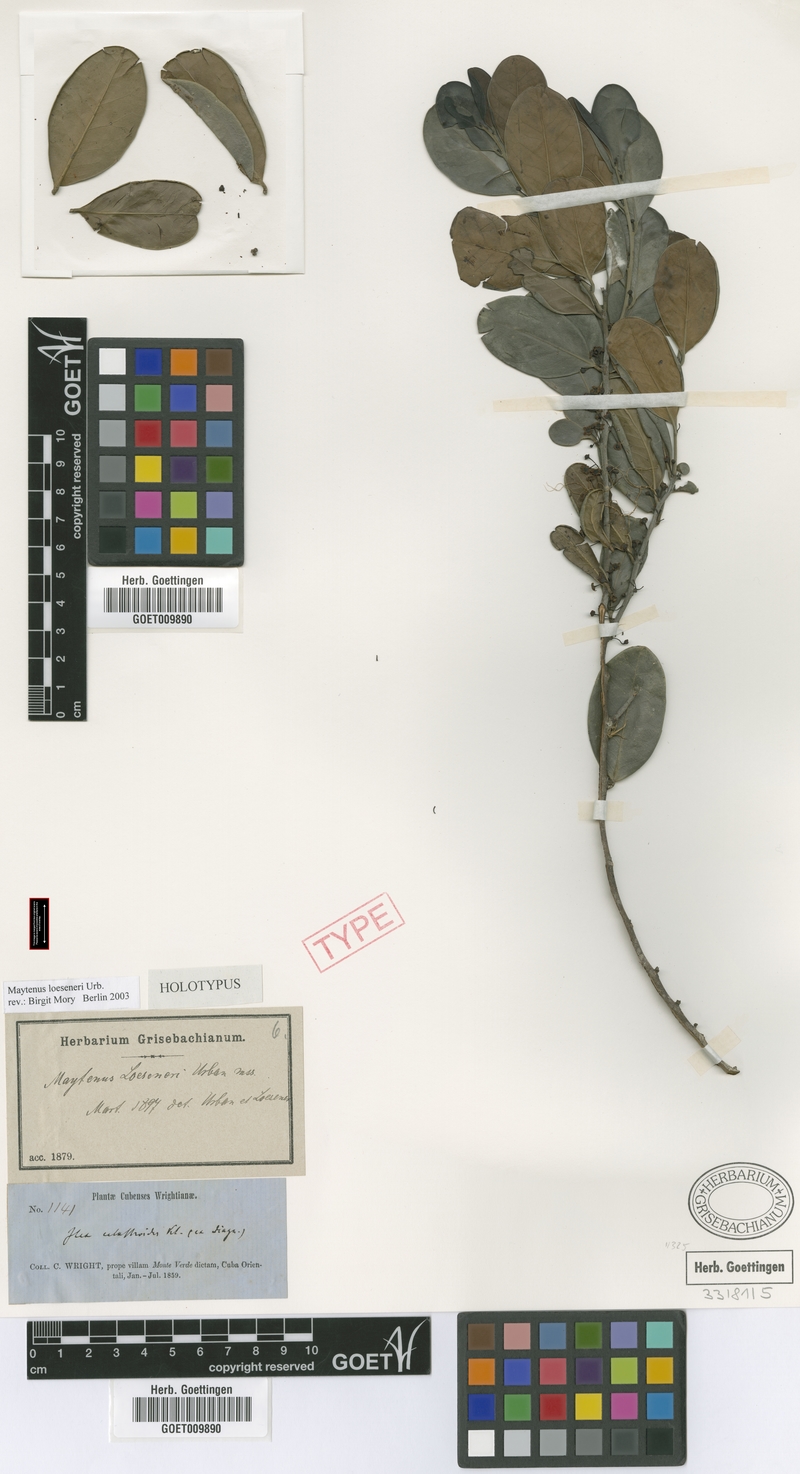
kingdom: Plantae
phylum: Tracheophyta
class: Magnoliopsida
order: Celastrales
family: Celastraceae
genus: Monteverdia
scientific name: Monteverdia loeseneri
